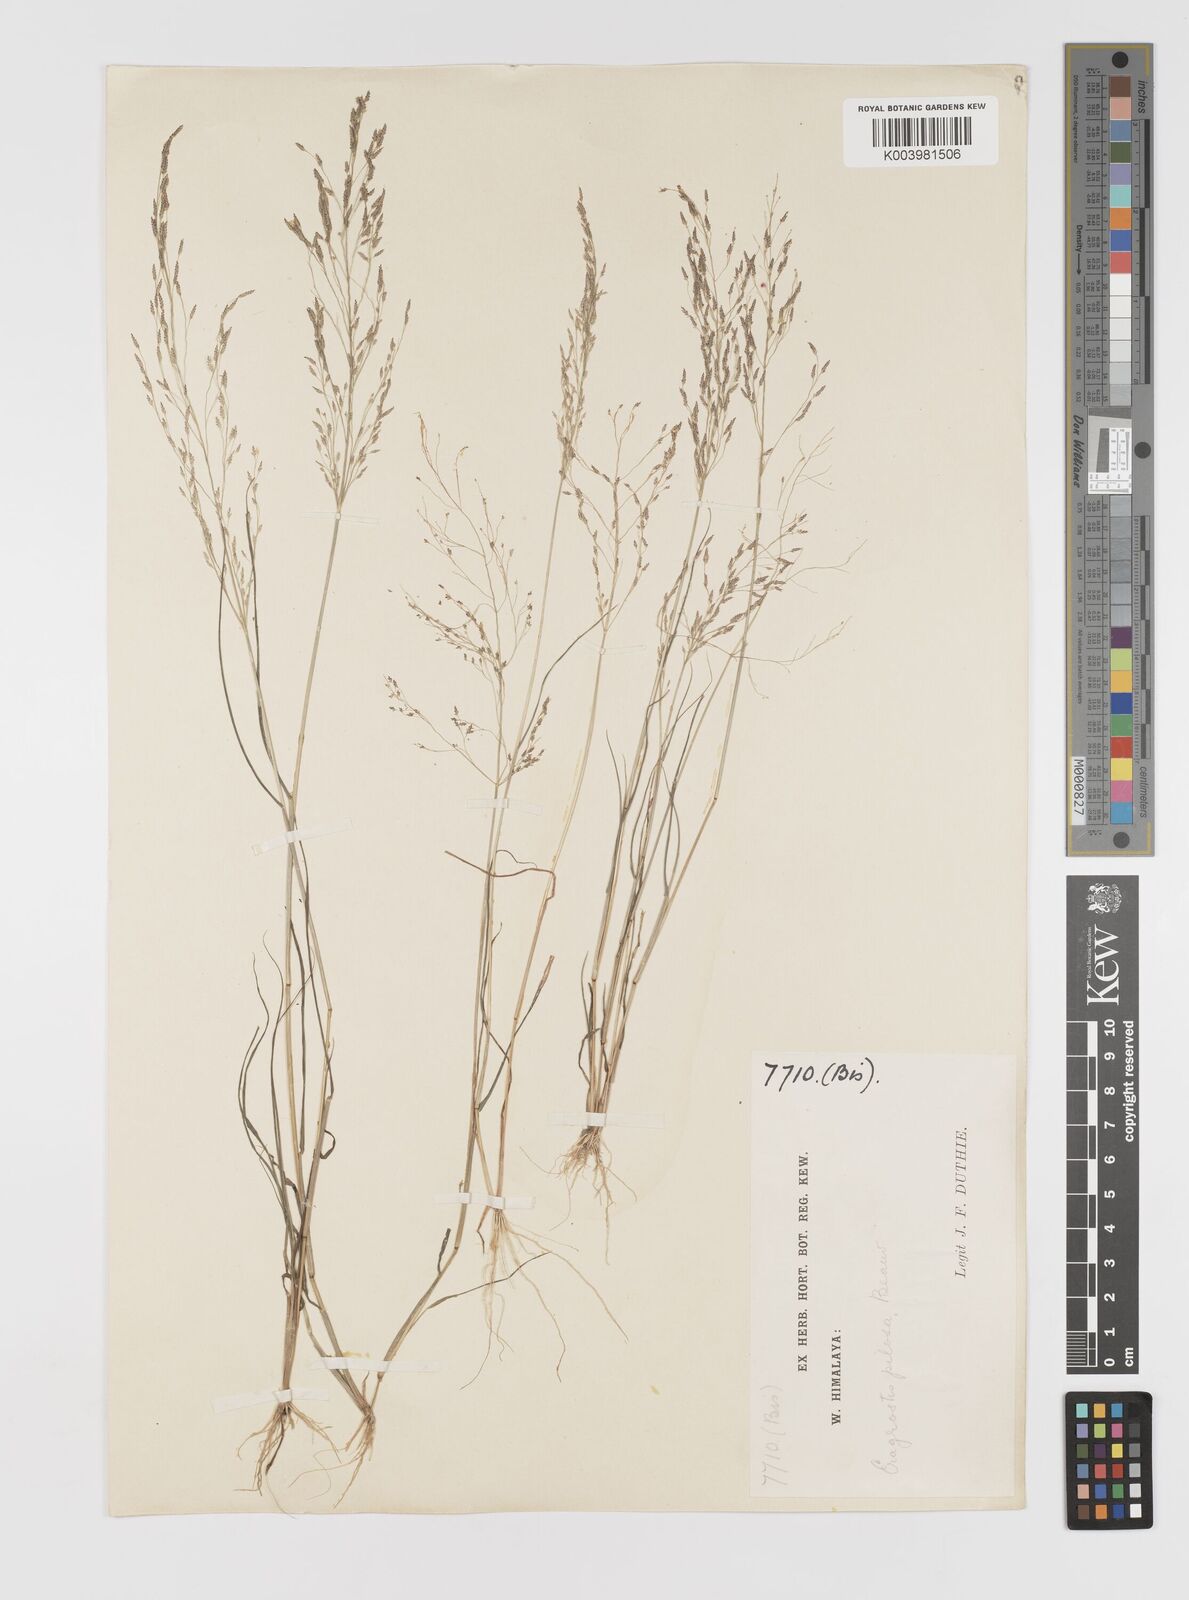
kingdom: Plantae
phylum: Tracheophyta
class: Liliopsida
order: Poales
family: Poaceae
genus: Eragrostis
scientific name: Eragrostis pilosa
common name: Indian lovegrass
